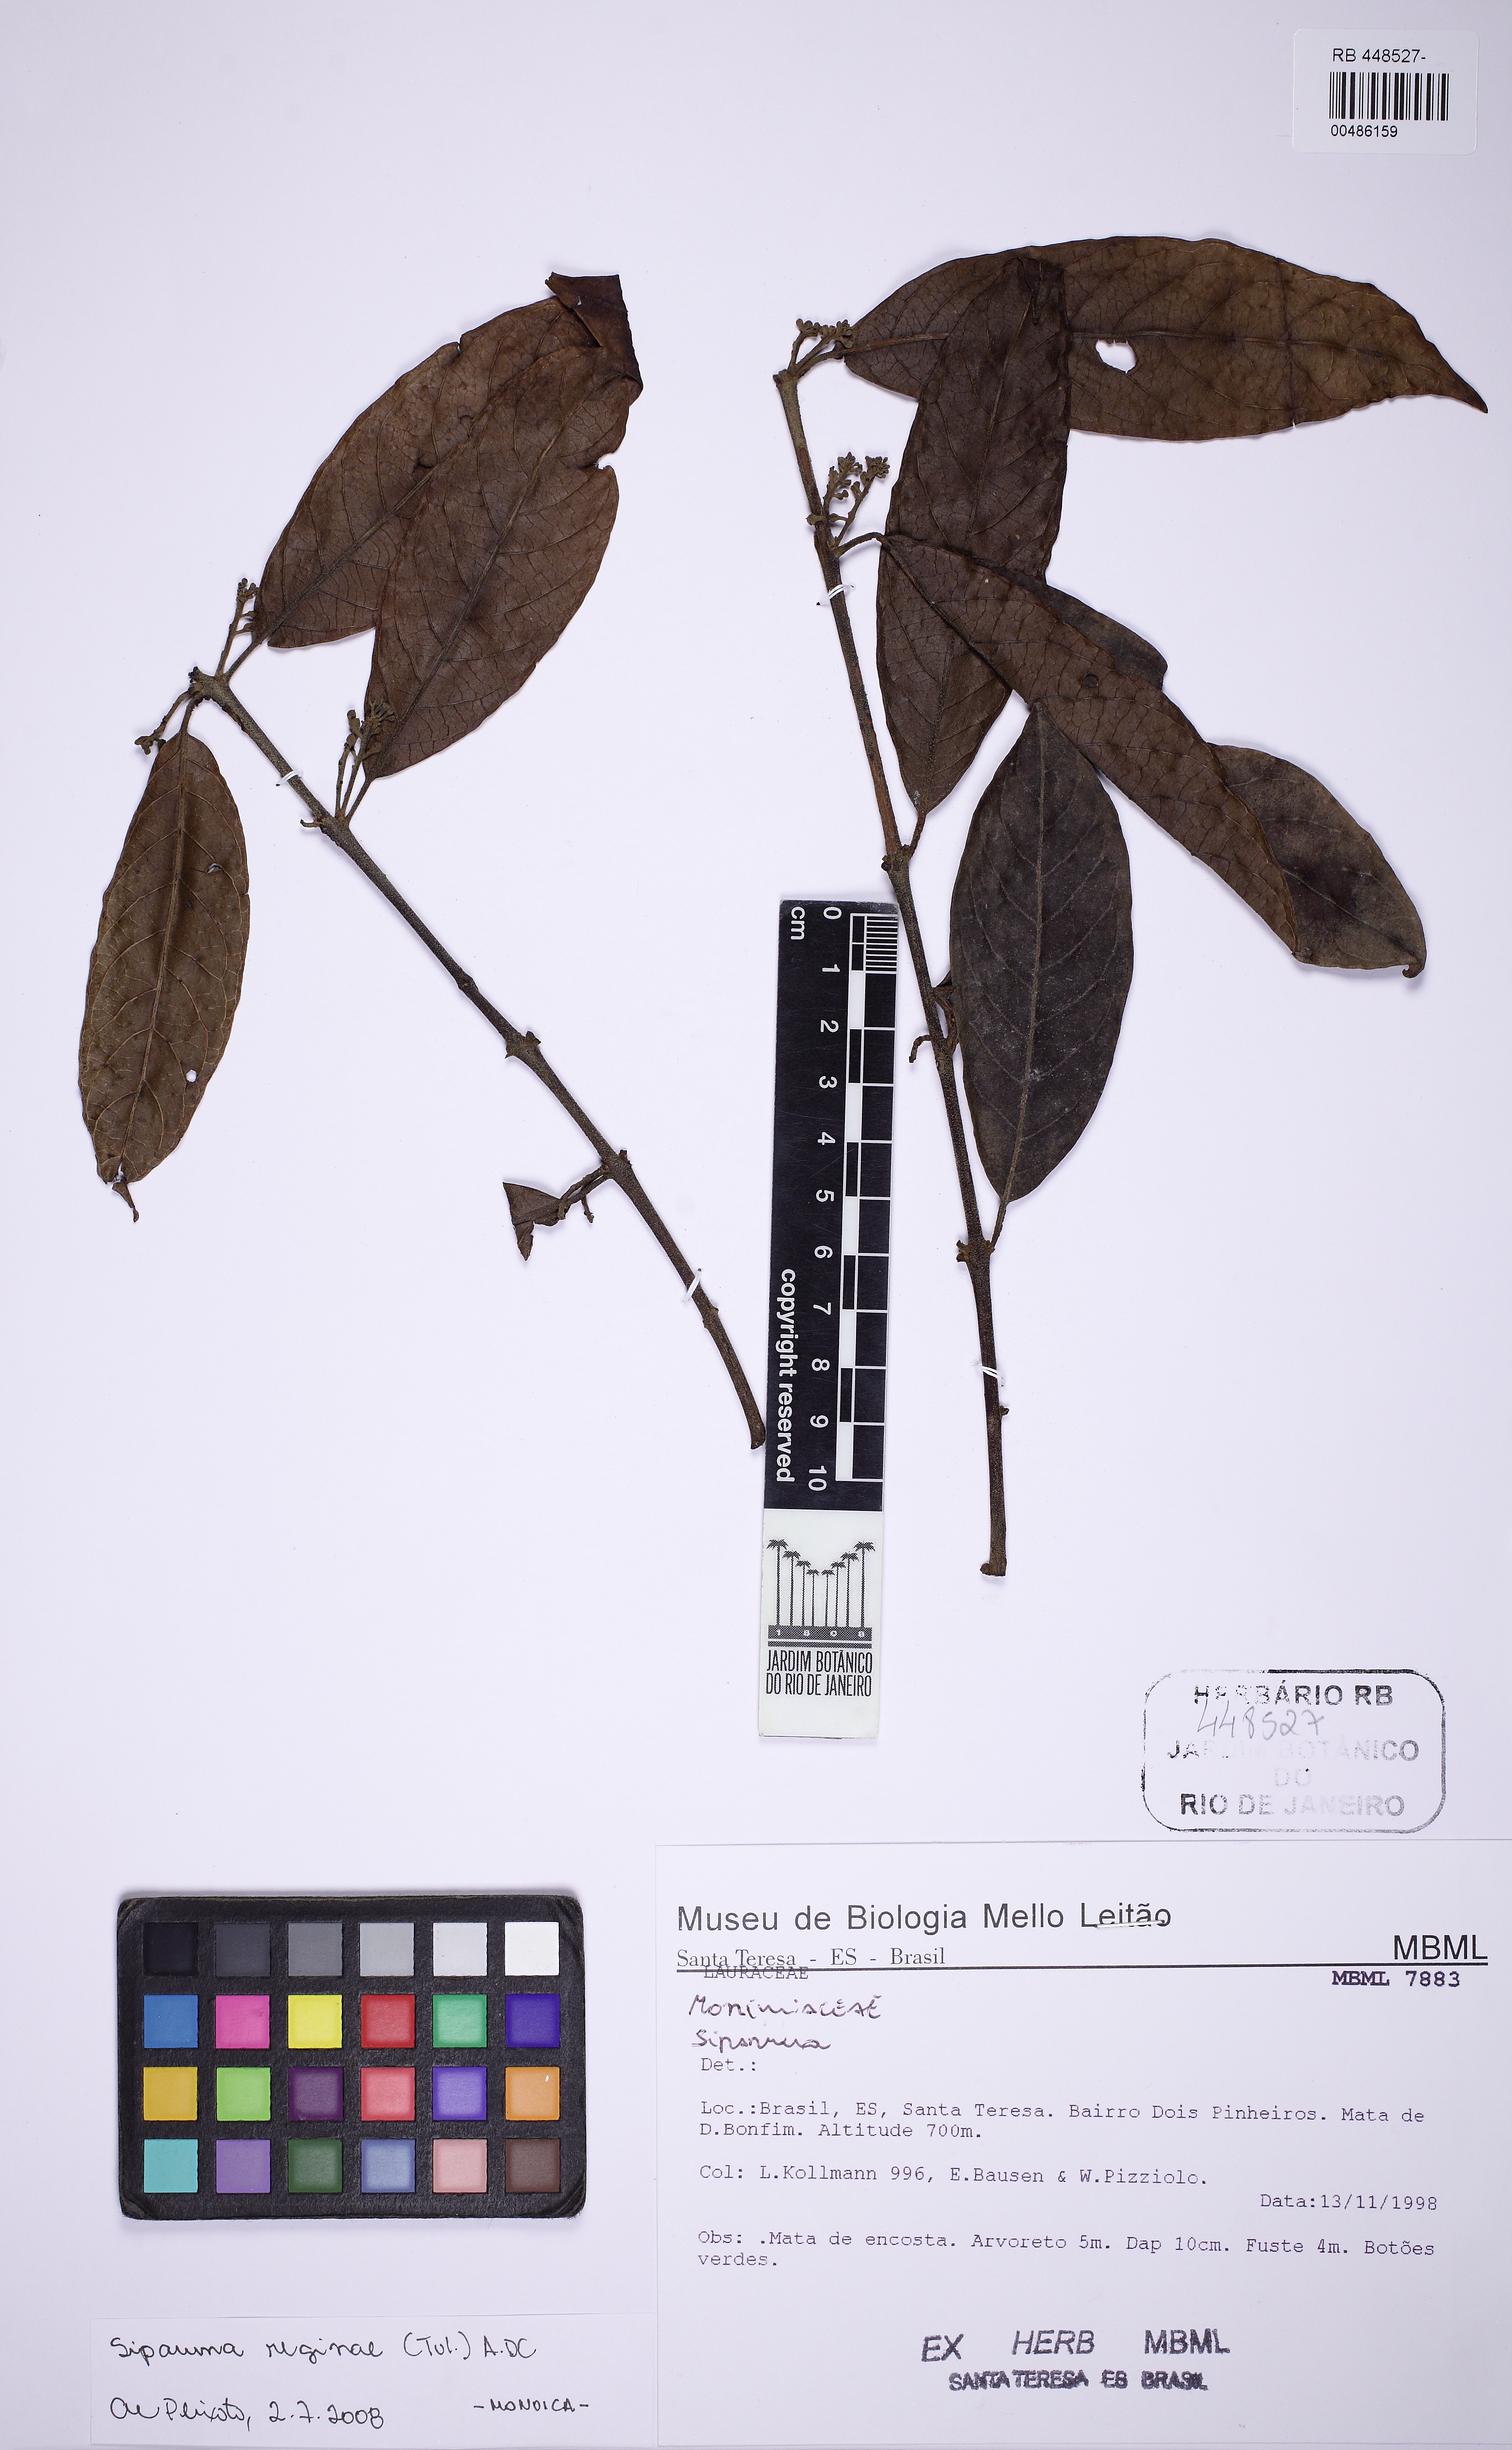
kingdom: Plantae
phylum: Tracheophyta
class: Magnoliopsida
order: Laurales
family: Siparunaceae
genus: Siparuna
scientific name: Siparuna reginae
